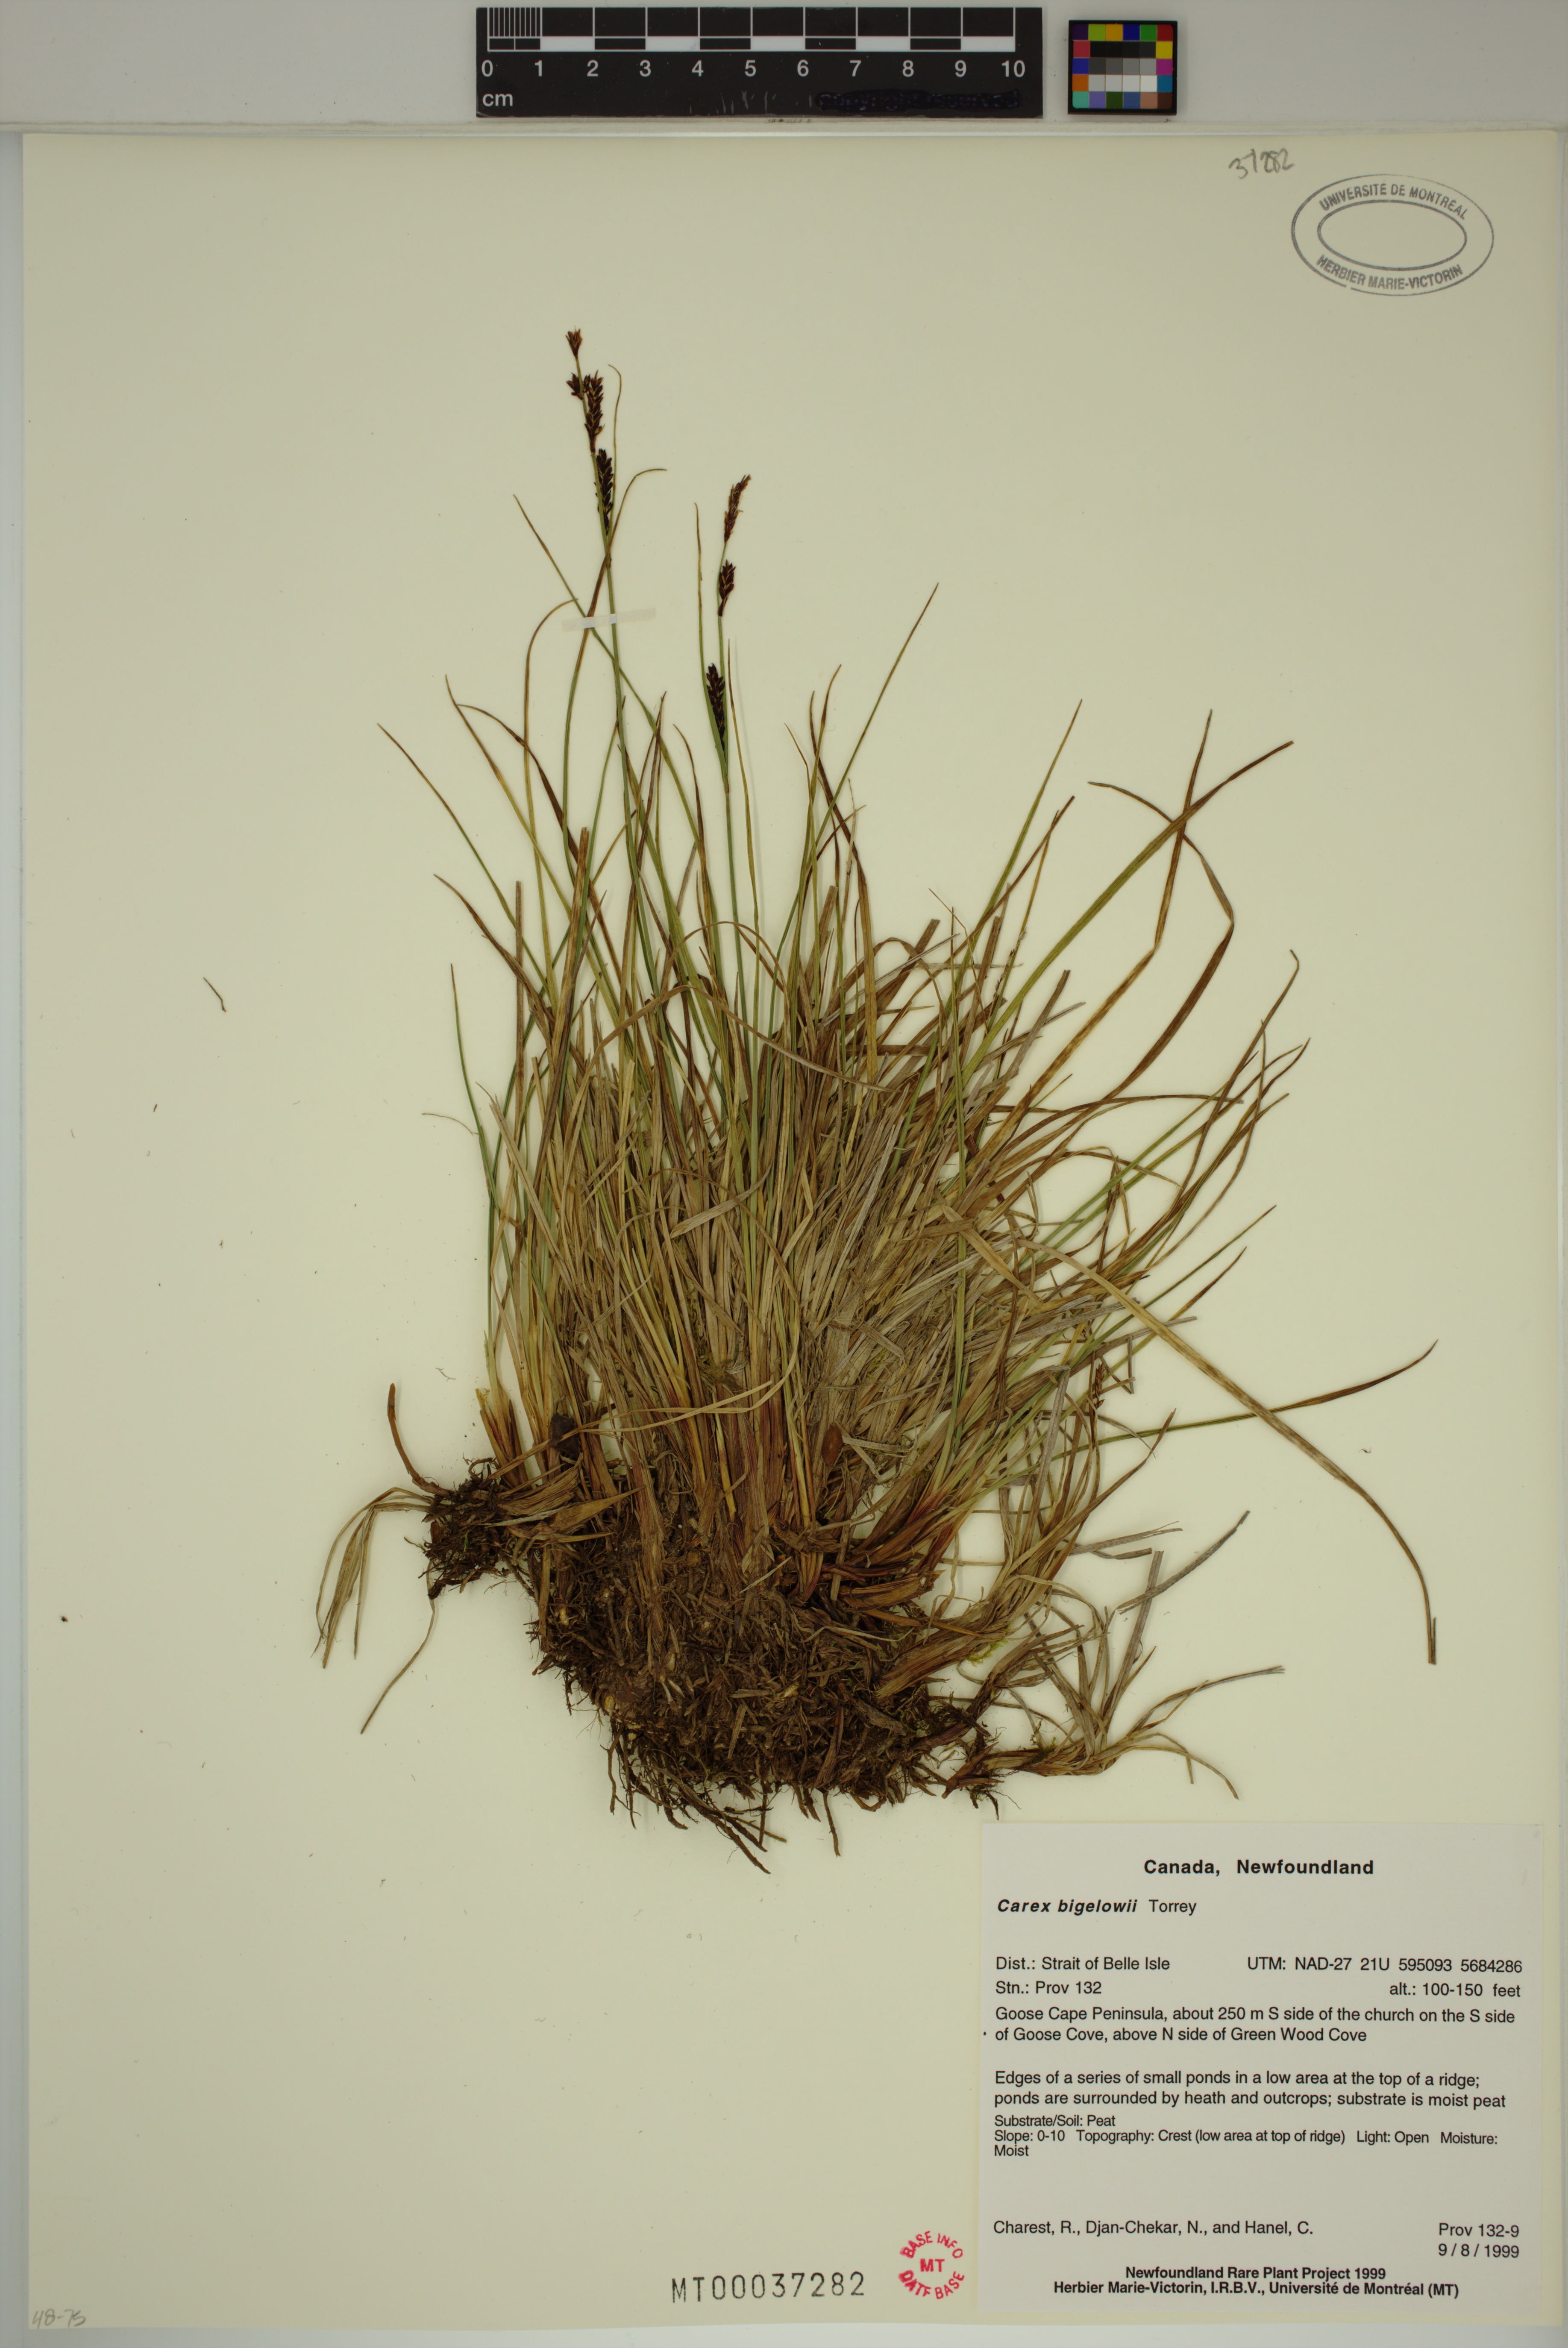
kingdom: Plantae
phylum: Tracheophyta
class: Liliopsida
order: Poales
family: Cyperaceae
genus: Carex
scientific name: Carex bigelowii
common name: Stiff sedge
